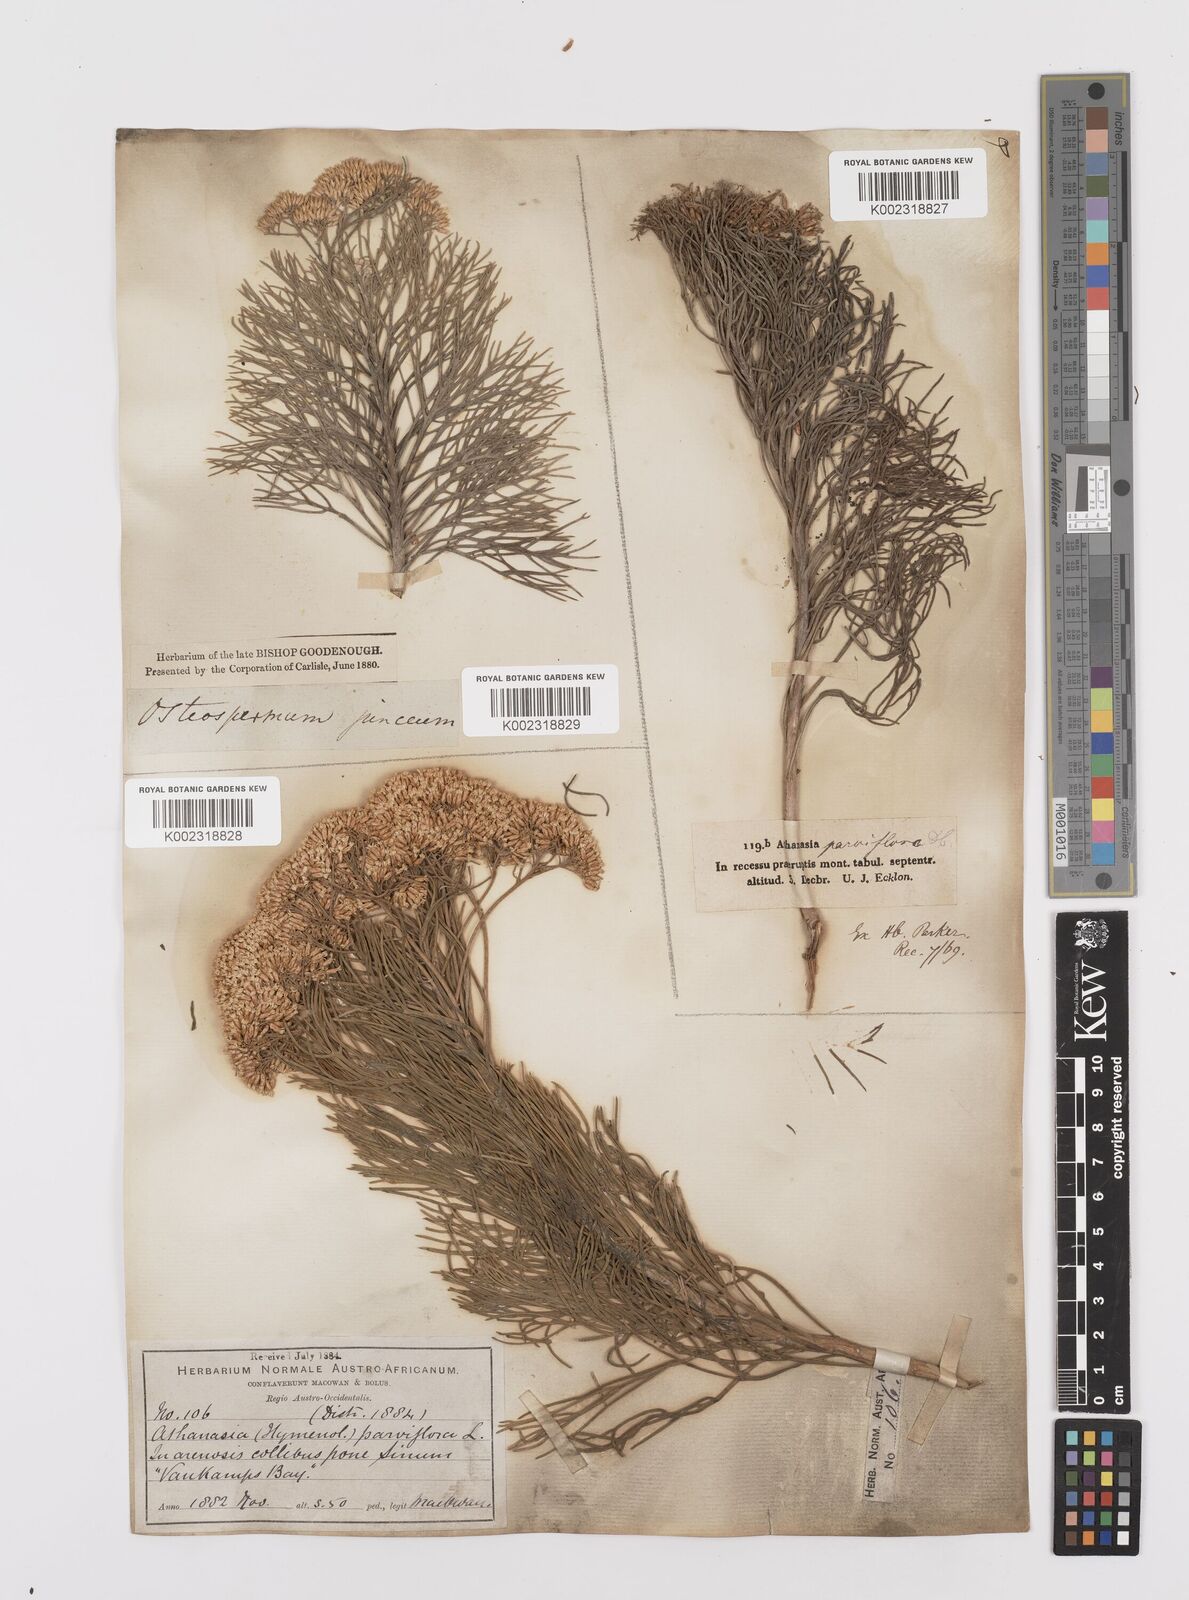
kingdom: Plantae
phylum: Tracheophyta
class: Magnoliopsida
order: Asterales
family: Asteraceae
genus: Hymenolepis
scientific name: Hymenolepis crithmifolia
